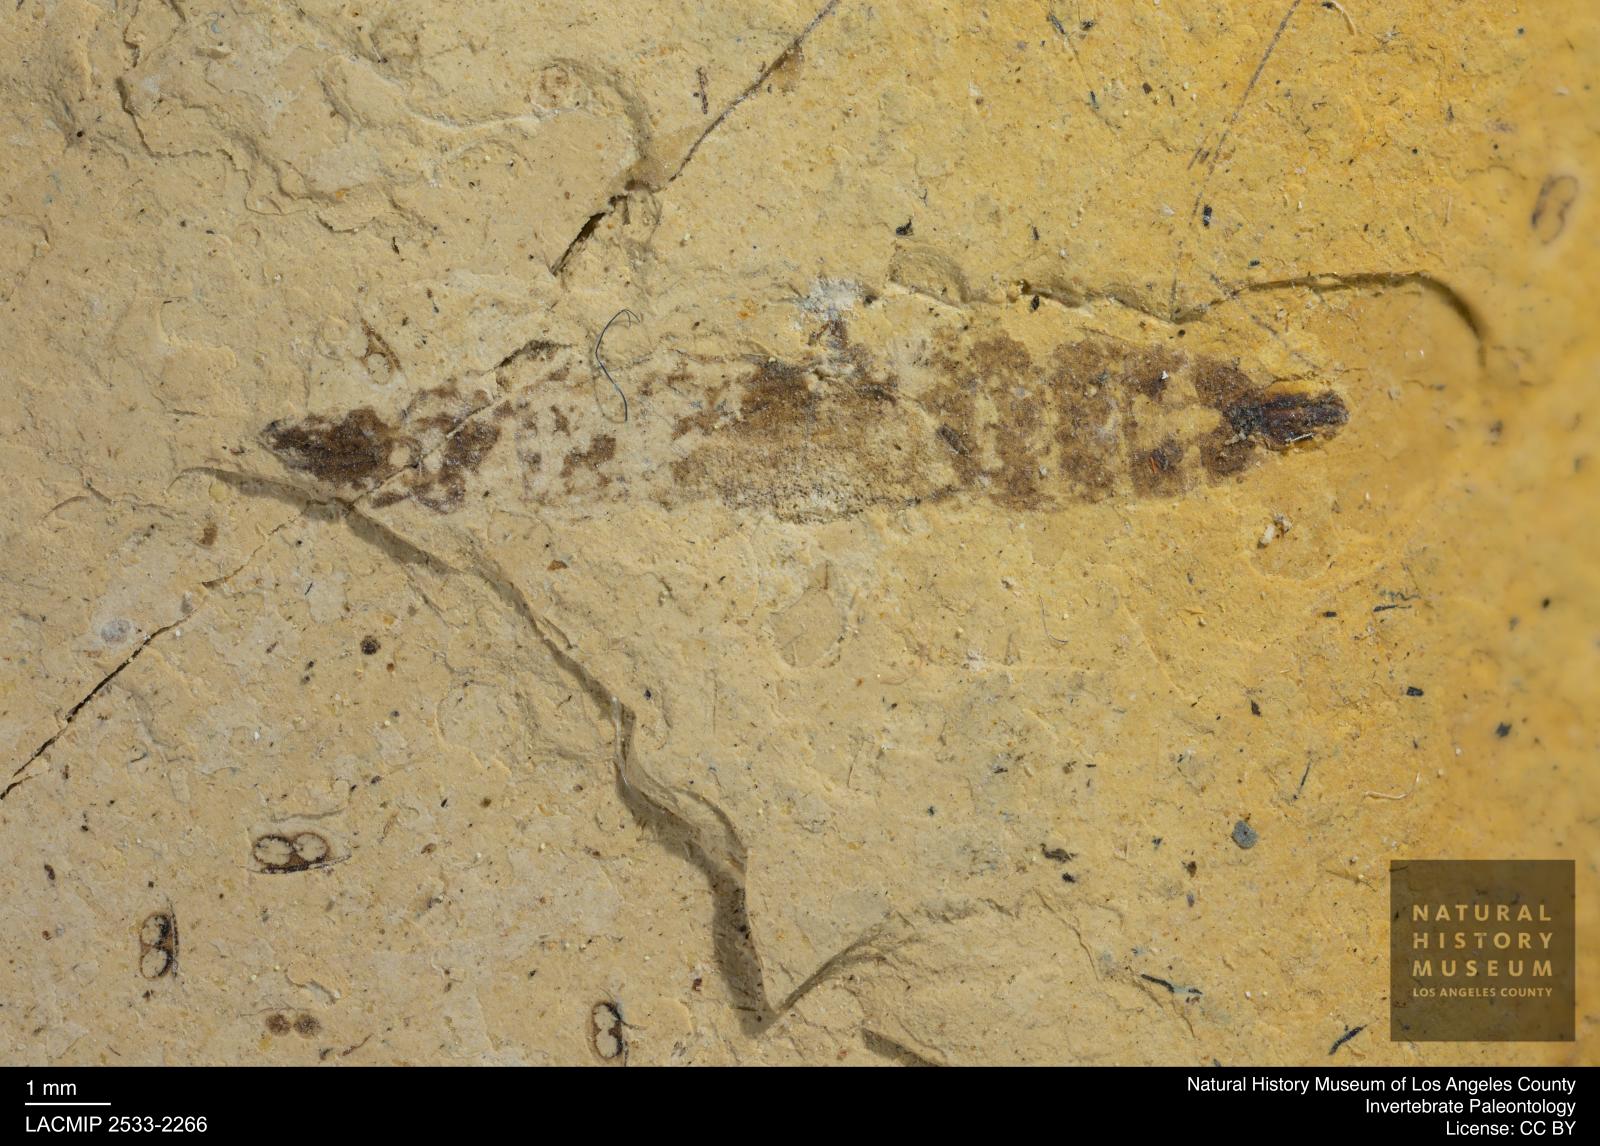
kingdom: Animalia
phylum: Arthropoda
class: Insecta
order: Diptera
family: Stratiomyidae
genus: Odontomyia
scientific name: Odontomyia
